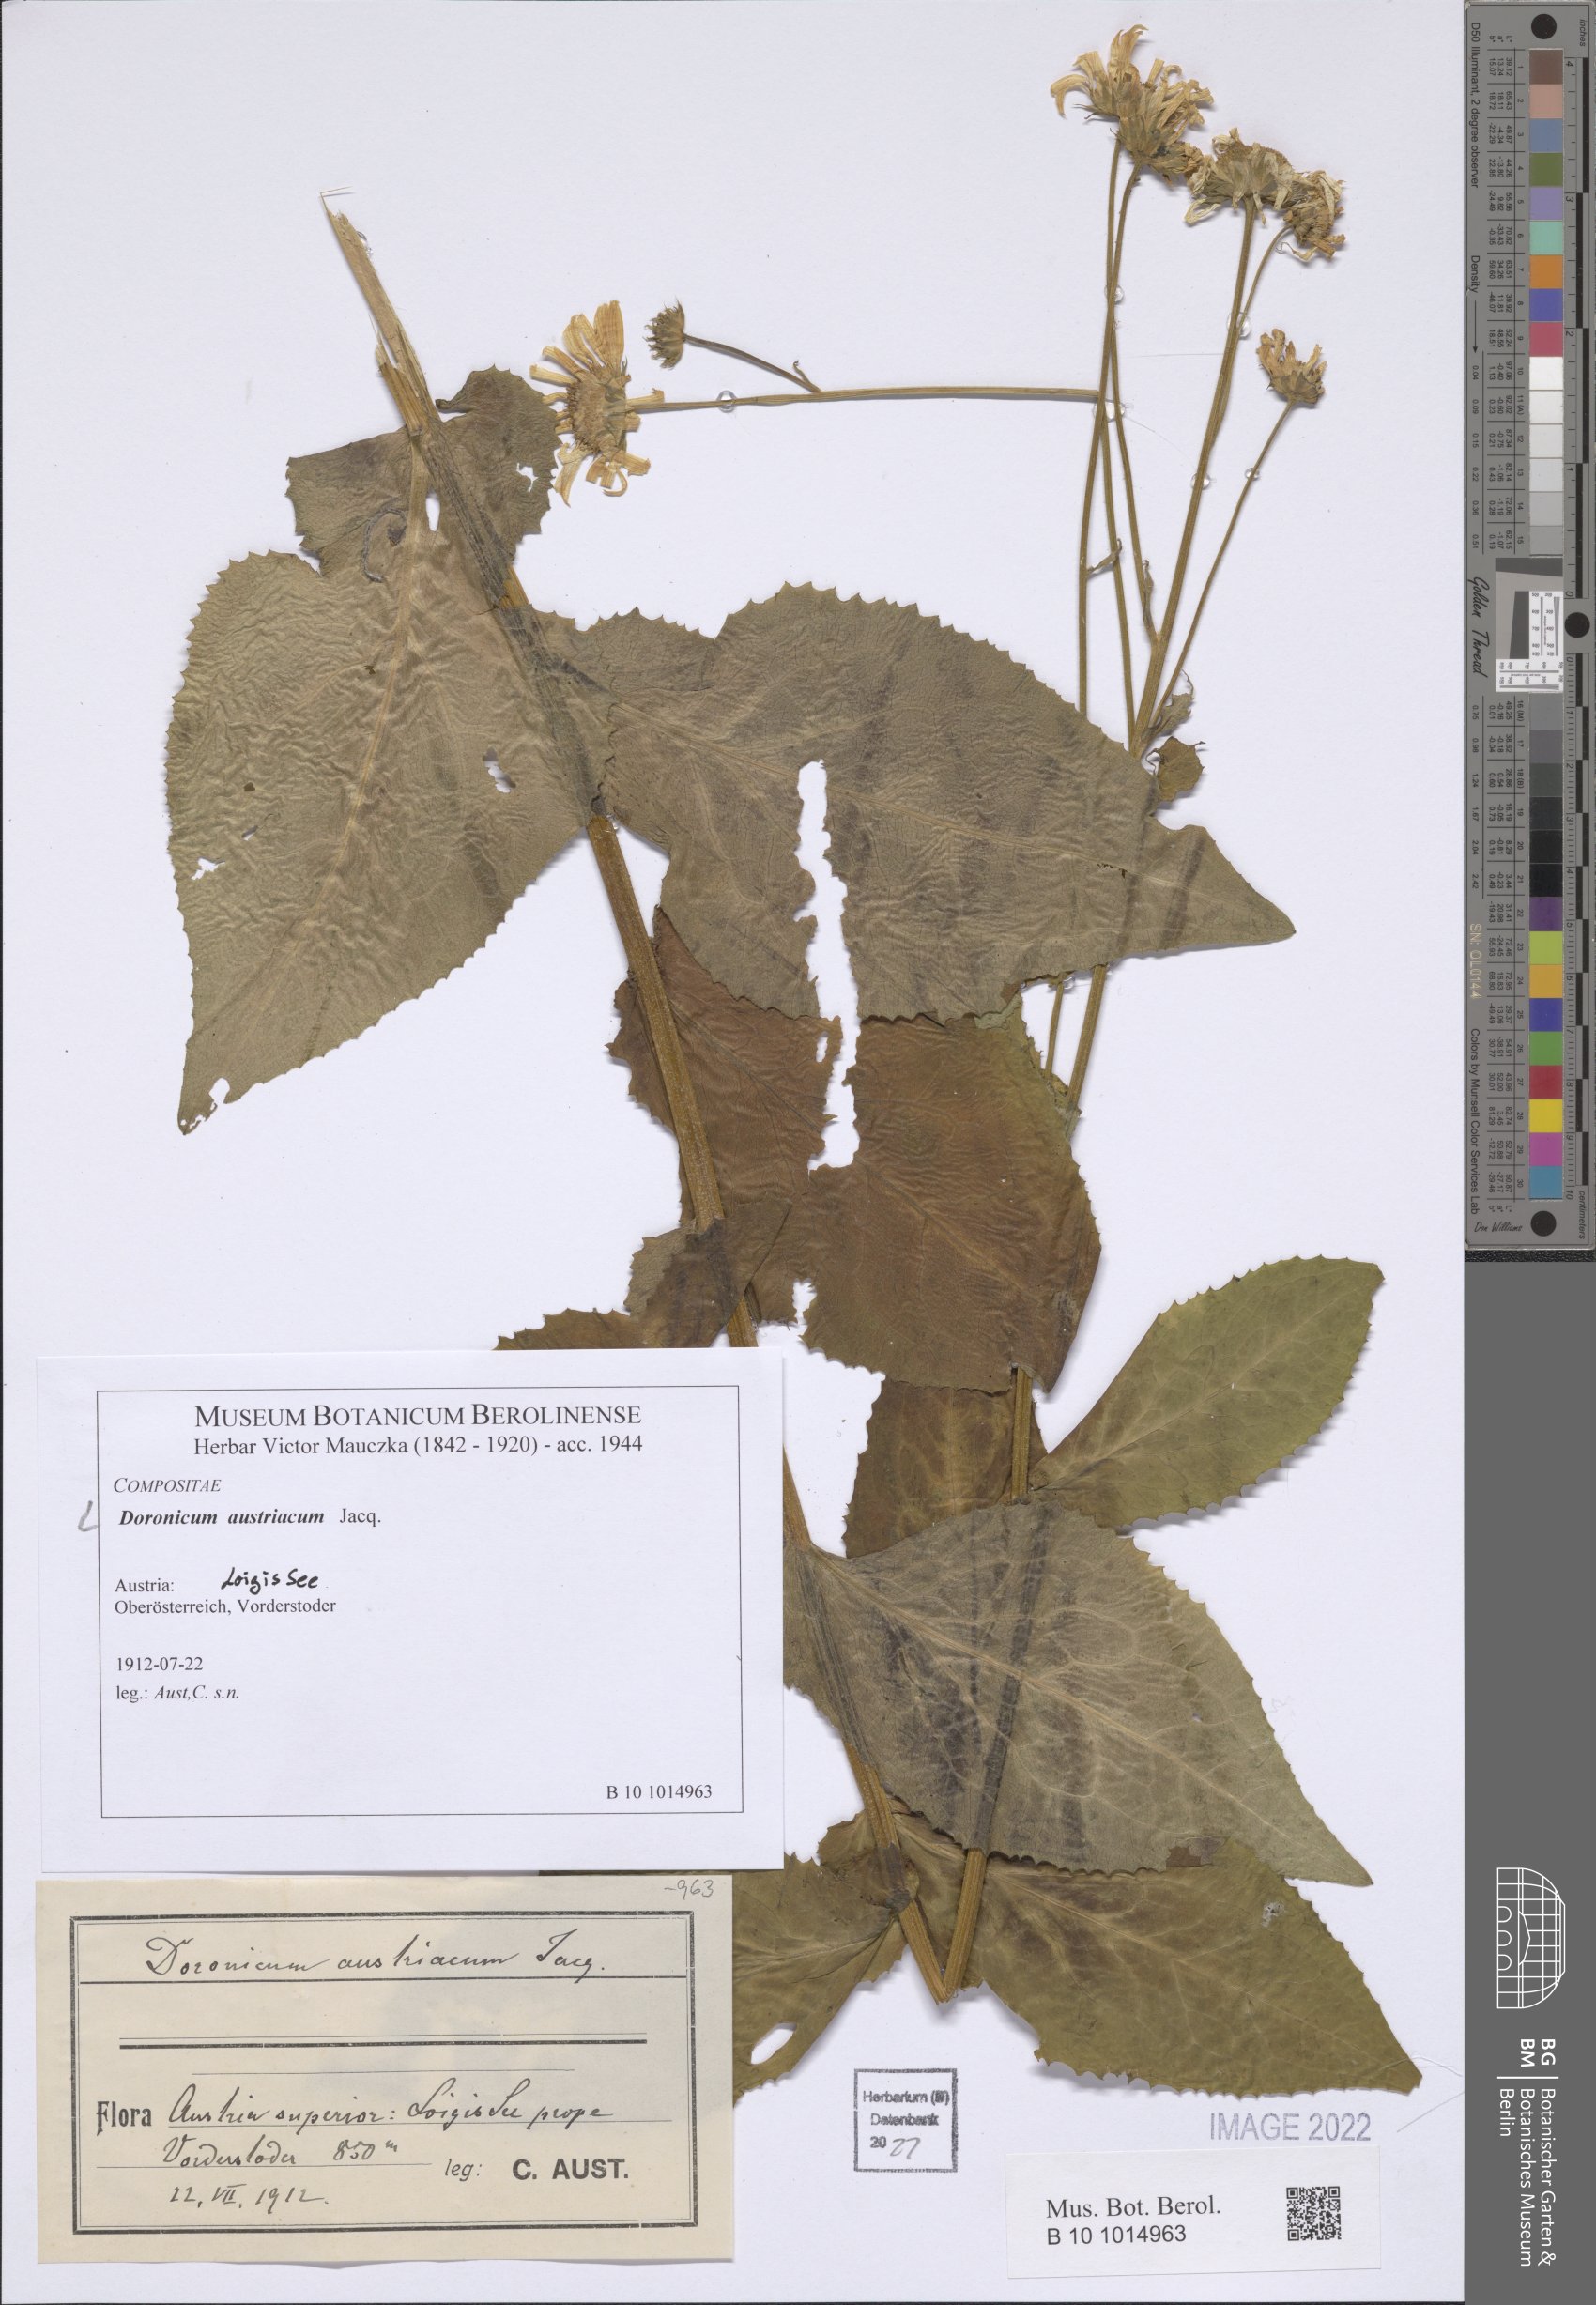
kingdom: Plantae
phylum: Tracheophyta
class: Magnoliopsida
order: Asterales
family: Asteraceae
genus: Doronicum
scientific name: Doronicum austriacum
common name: Austrian leopard's-bane
